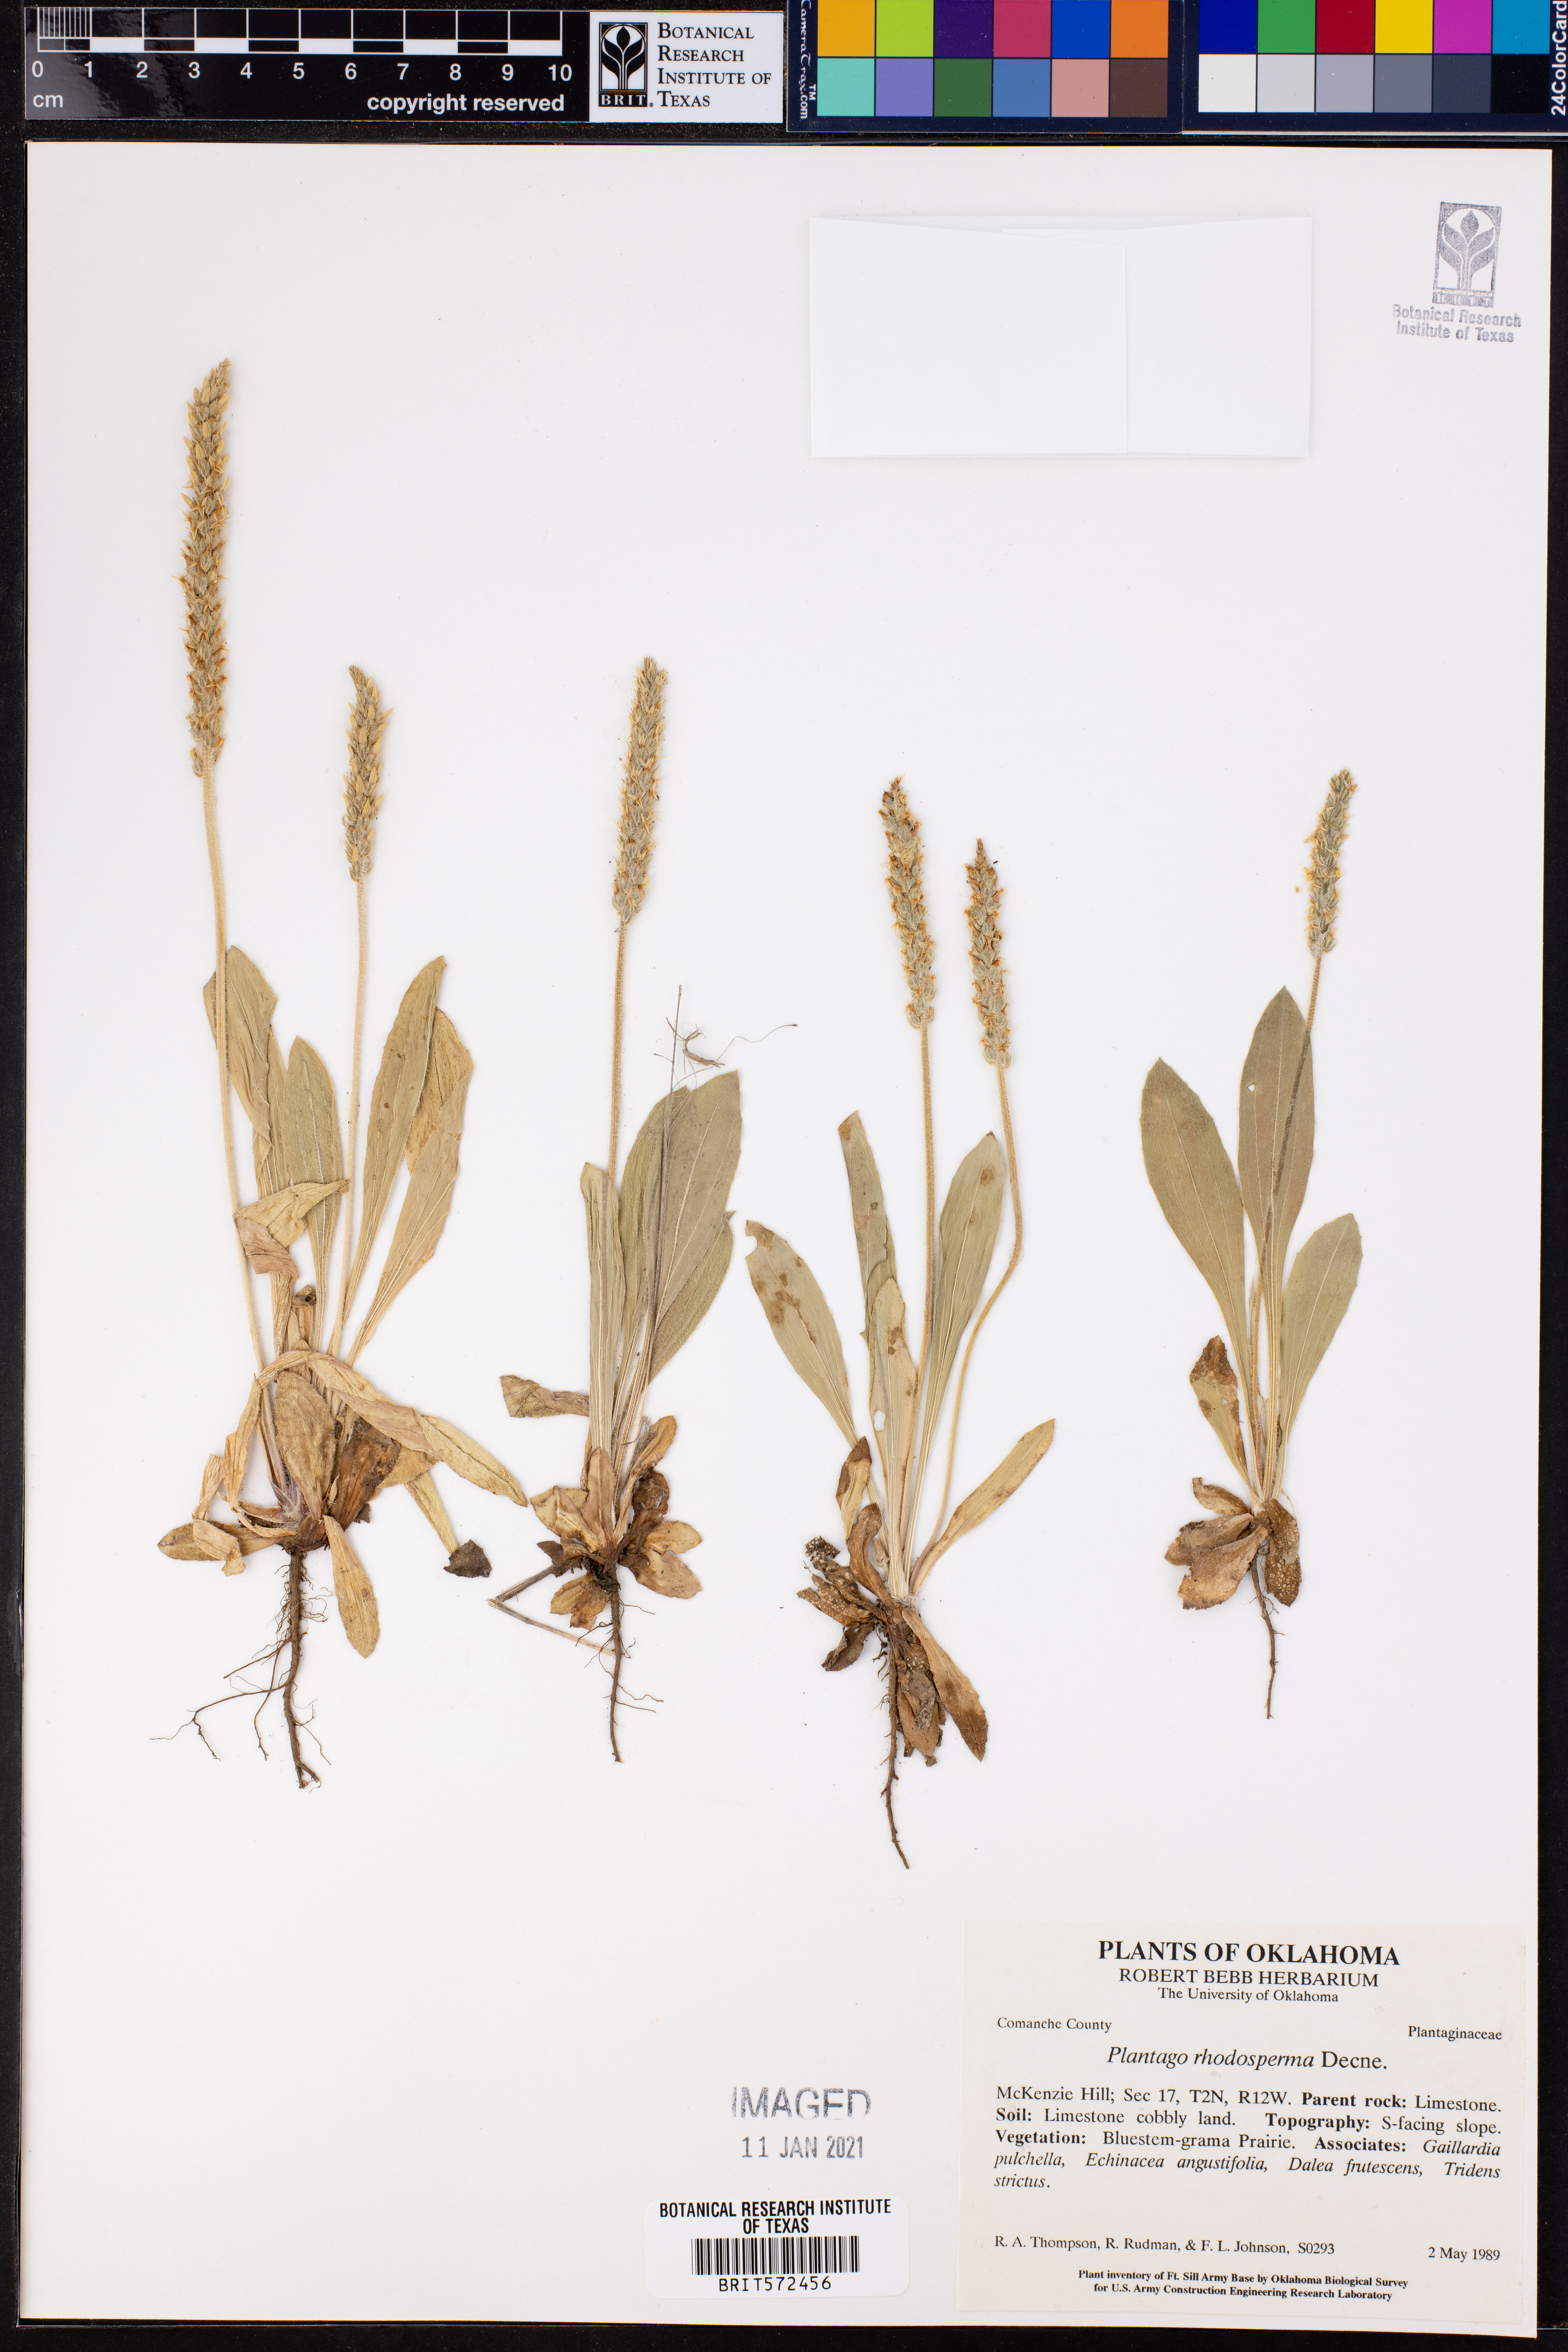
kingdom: Plantae
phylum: Tracheophyta
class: Magnoliopsida
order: Lamiales
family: Plantaginaceae
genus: Plantago
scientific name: Plantago rhodosperma
